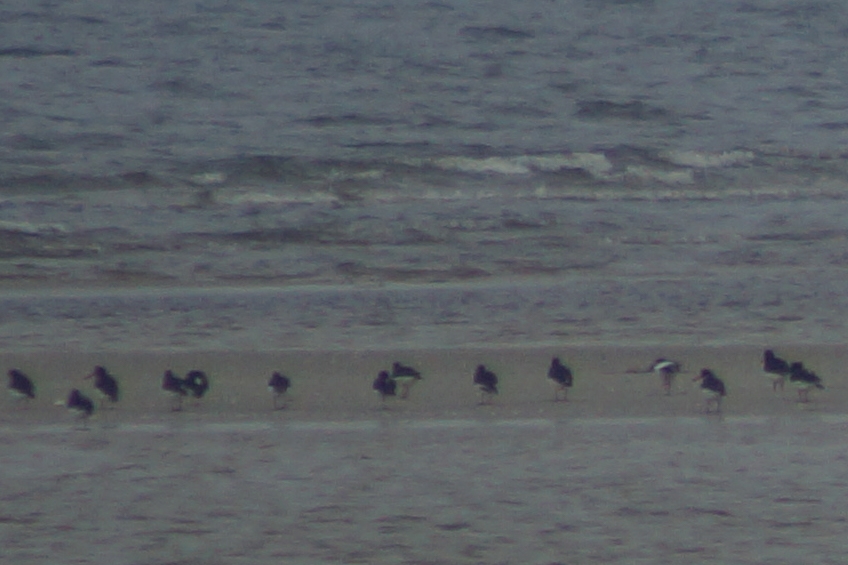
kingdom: Animalia
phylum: Chordata
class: Aves
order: Charadriiformes
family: Haematopodidae
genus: Haematopus
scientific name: Haematopus ostralegus
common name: Strandskade
